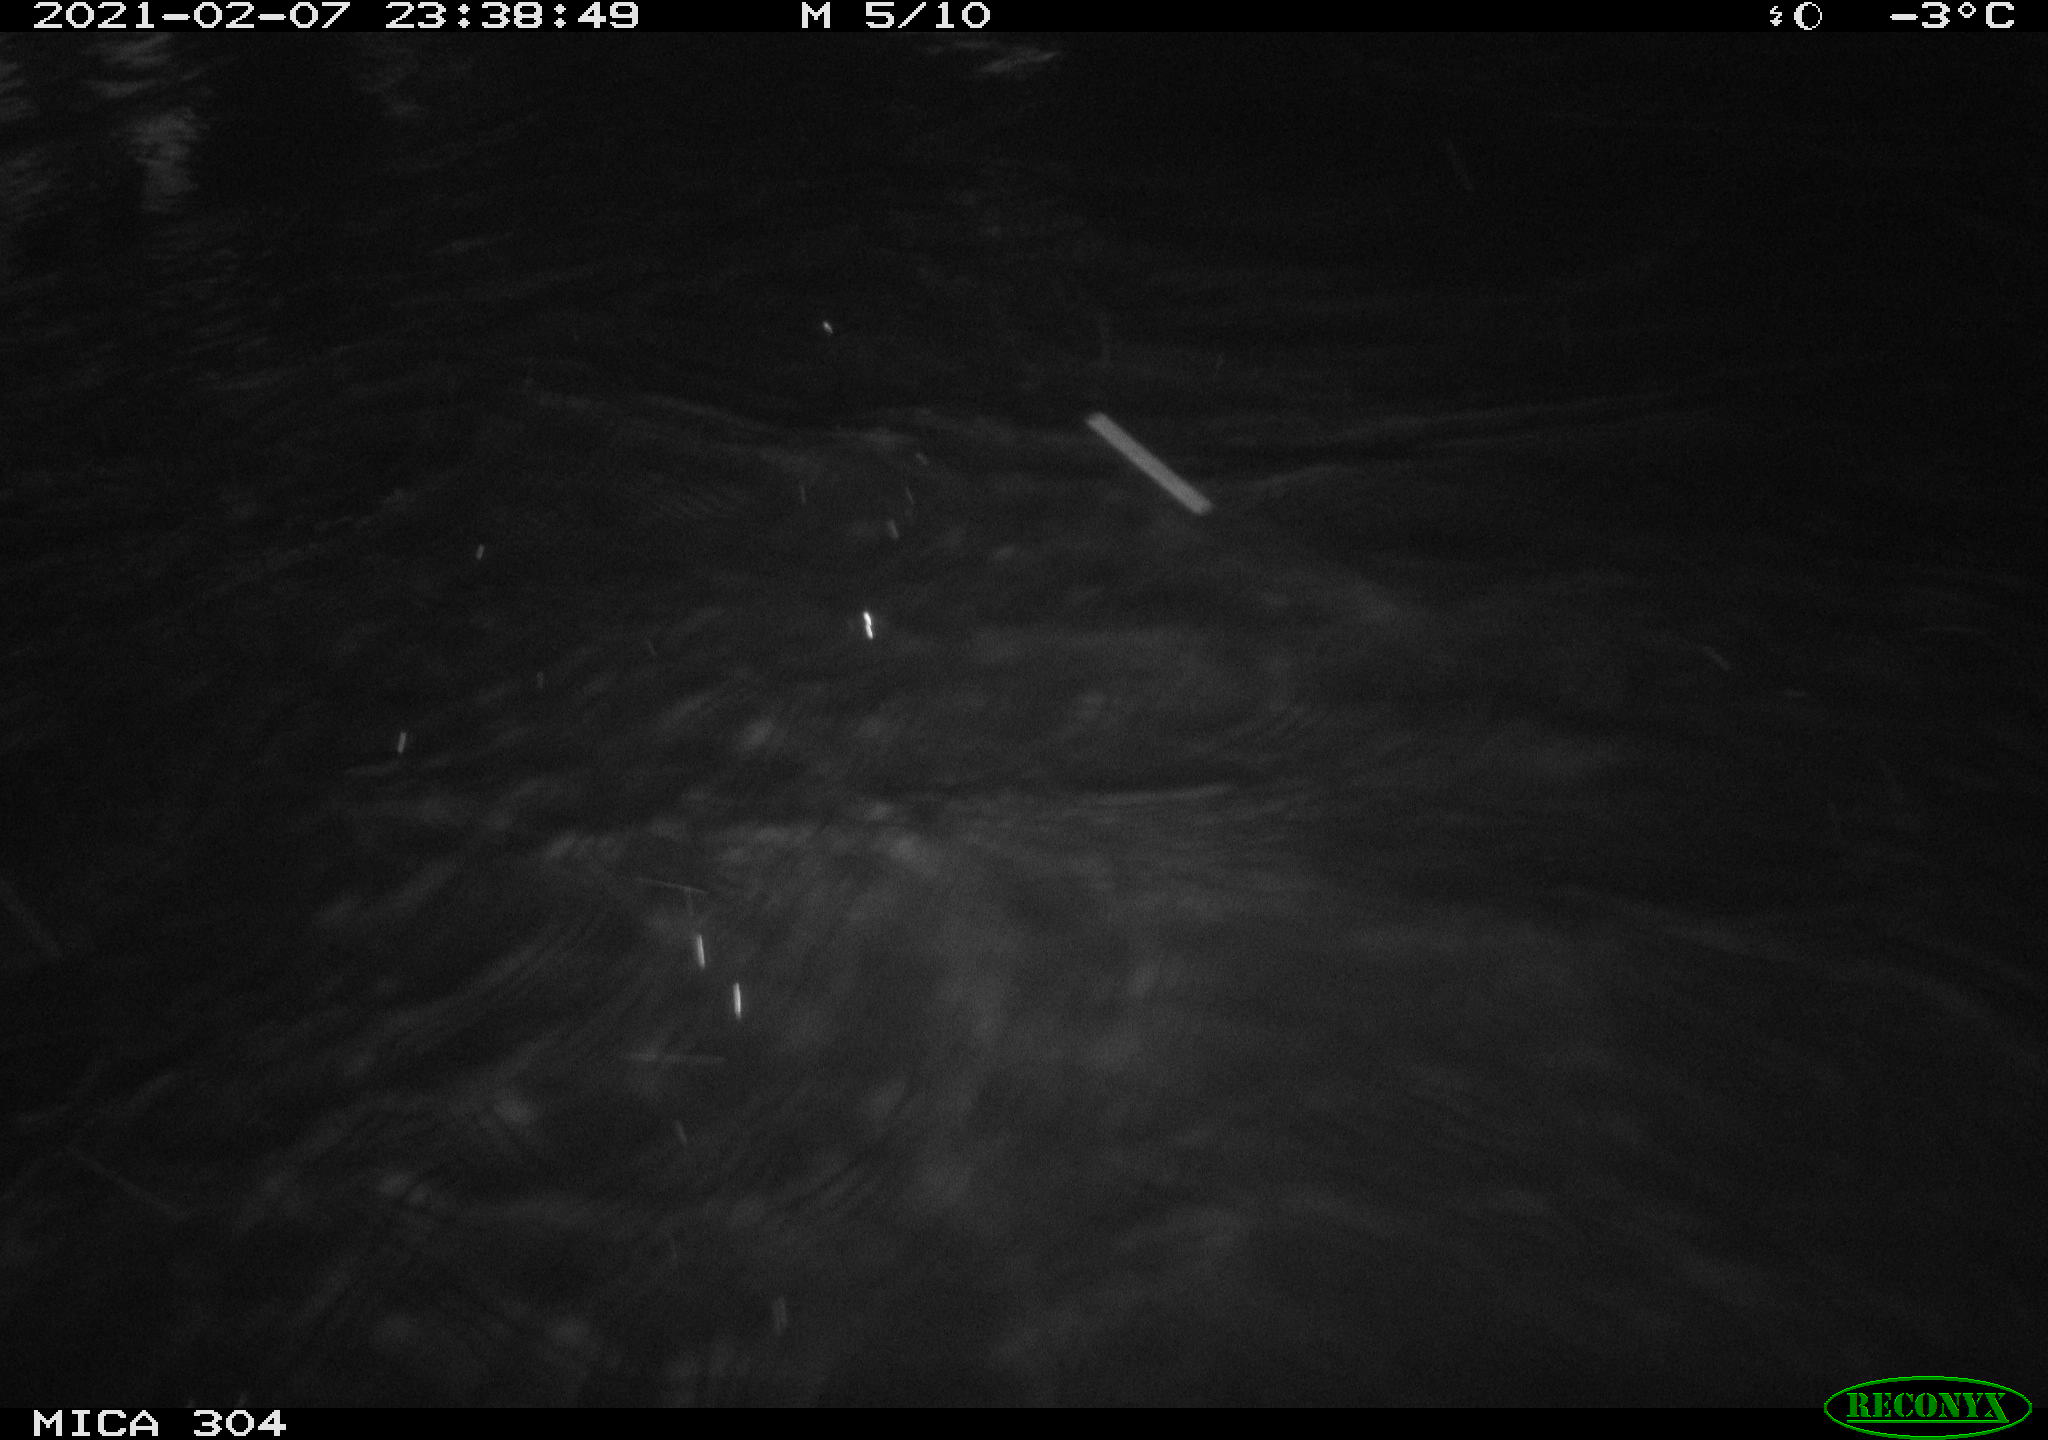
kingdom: Animalia
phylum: Chordata
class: Aves
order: Anseriformes
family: Anatidae
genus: Anas
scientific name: Anas platyrhynchos
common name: Mallard
